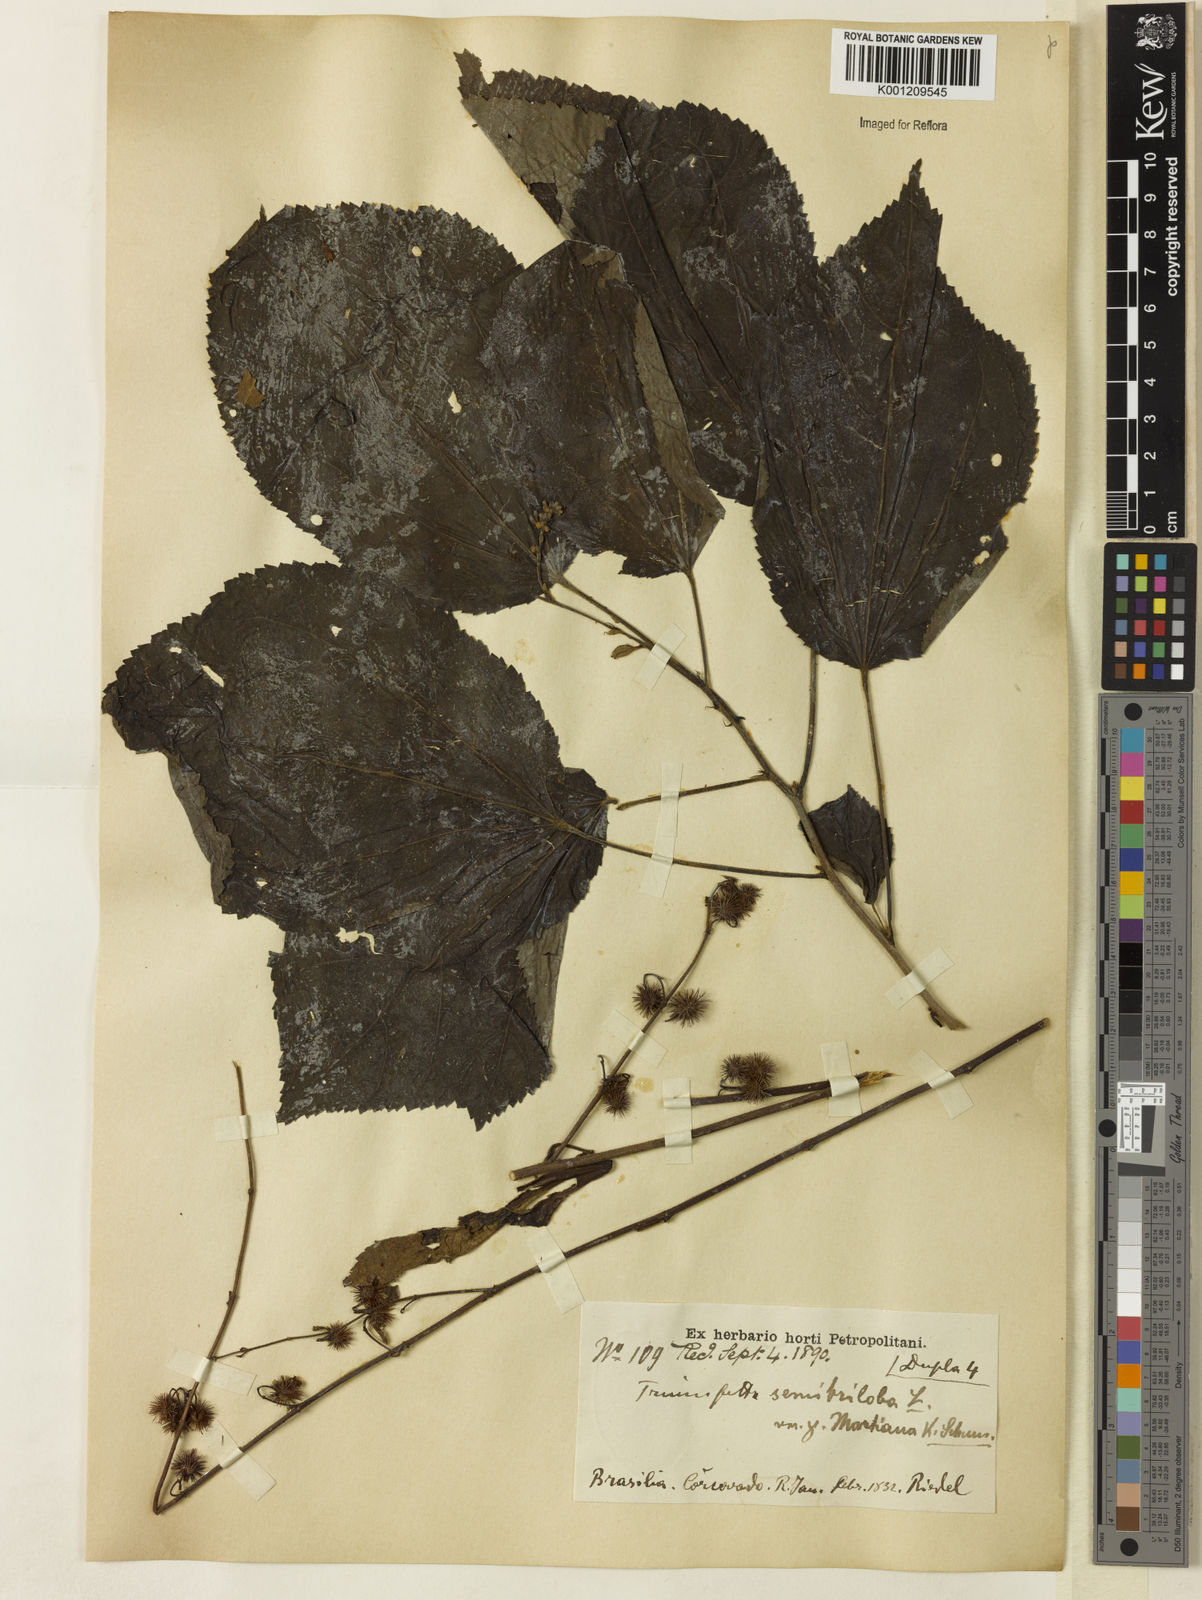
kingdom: Plantae
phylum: Tracheophyta
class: Magnoliopsida
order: Malvales
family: Malvaceae
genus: Triumfetta
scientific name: Triumfetta spicata
